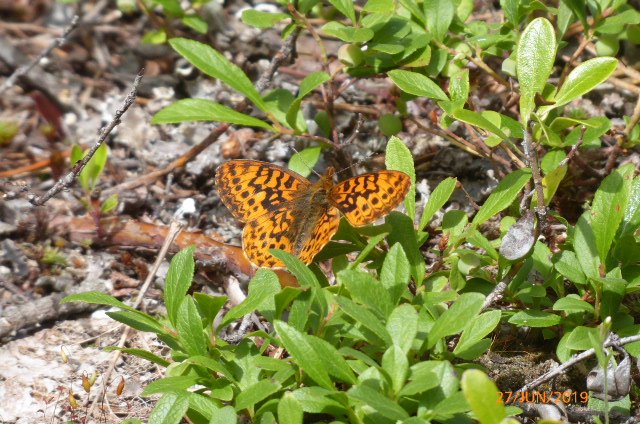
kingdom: Animalia
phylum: Arthropoda
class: Insecta
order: Lepidoptera
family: Nymphalidae
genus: Boloria
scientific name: Boloria freija
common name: Freija Fritillary
